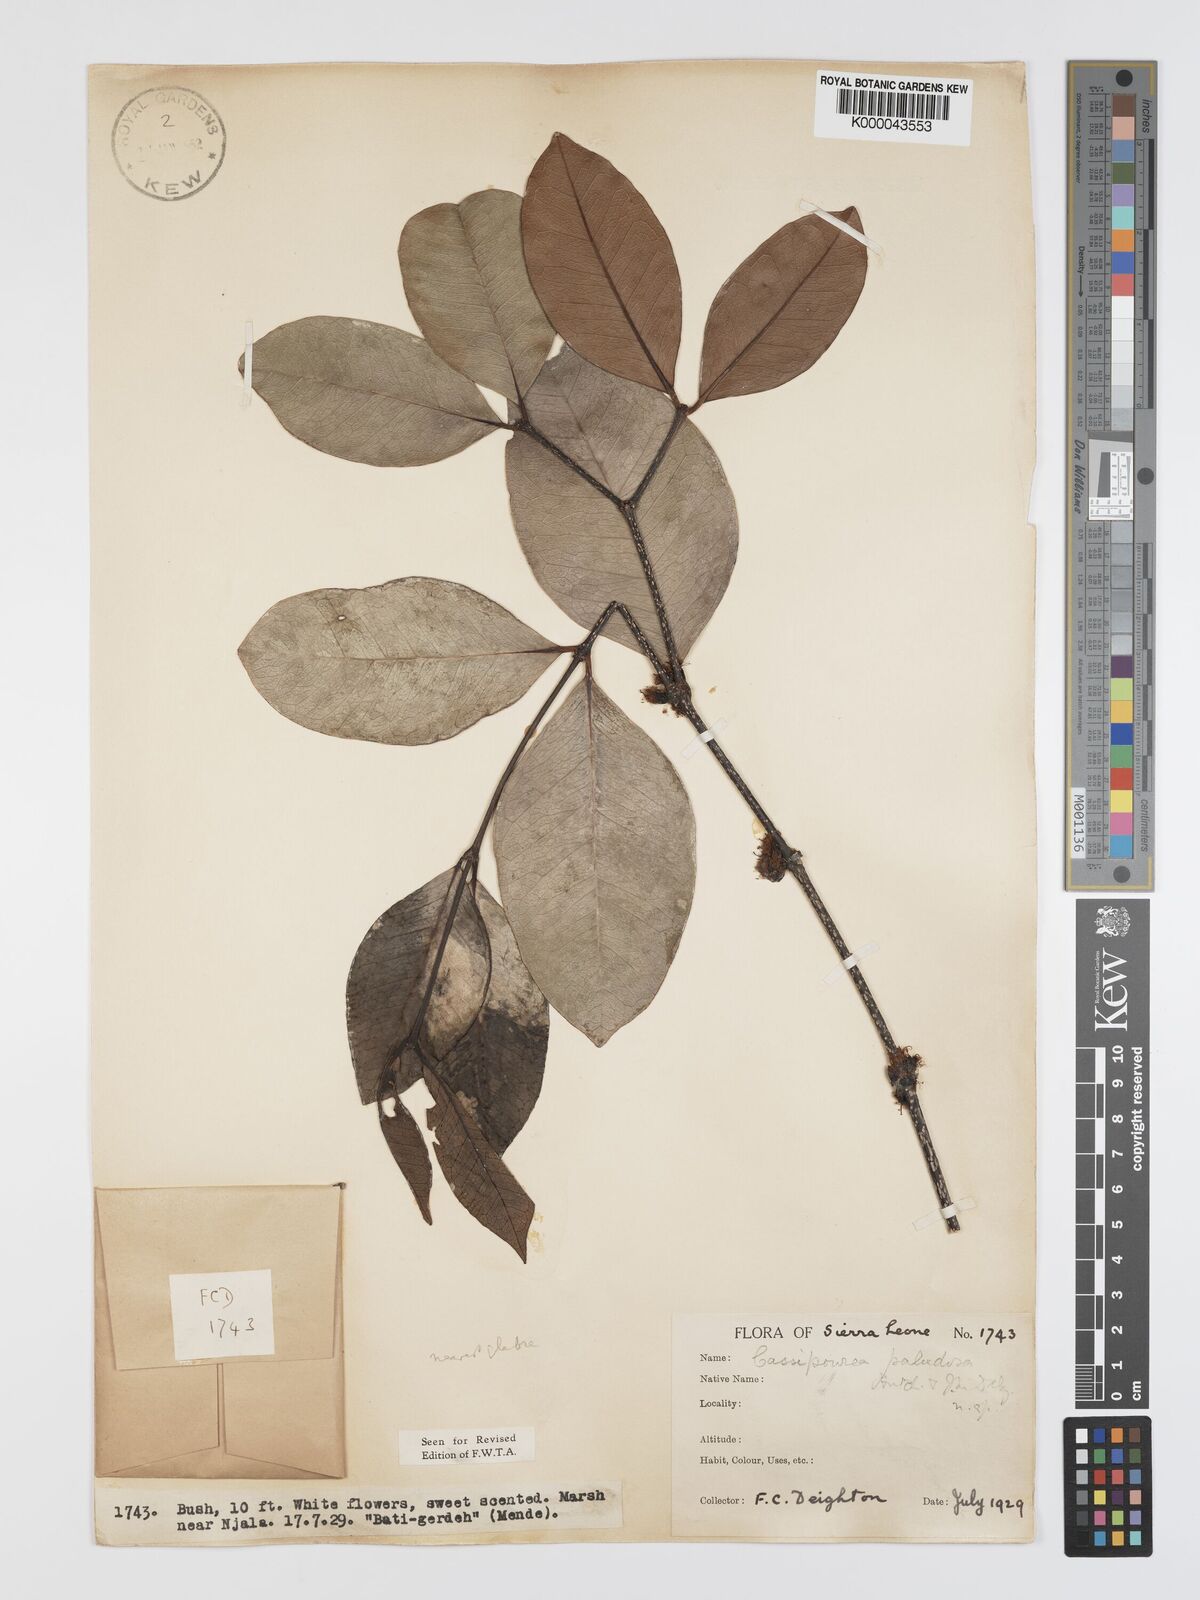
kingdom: Plantae
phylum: Tracheophyta
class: Magnoliopsida
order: Malpighiales
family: Rhizophoraceae
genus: Cassipourea
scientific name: Cassipourea
